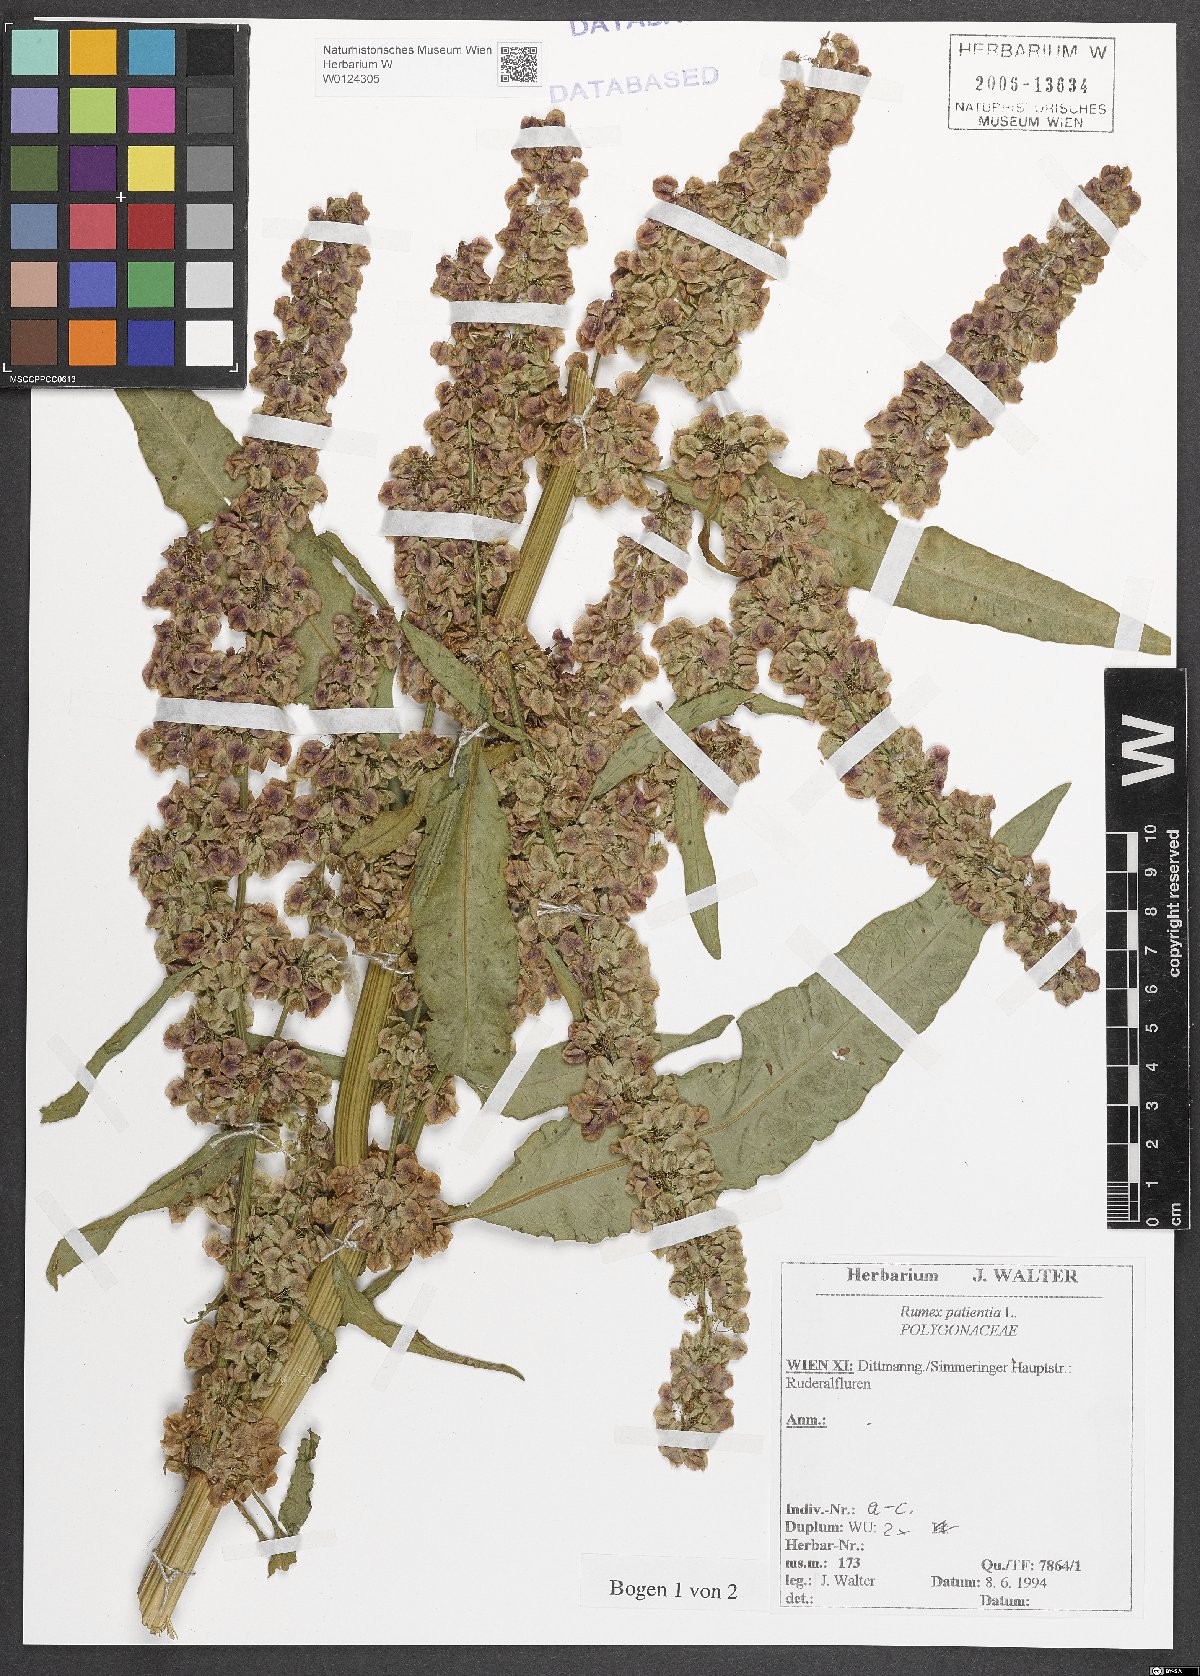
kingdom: Plantae
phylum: Tracheophyta
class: Magnoliopsida
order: Caryophyllales
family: Polygonaceae
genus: Rumex
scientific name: Rumex patientia
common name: Patience dock
